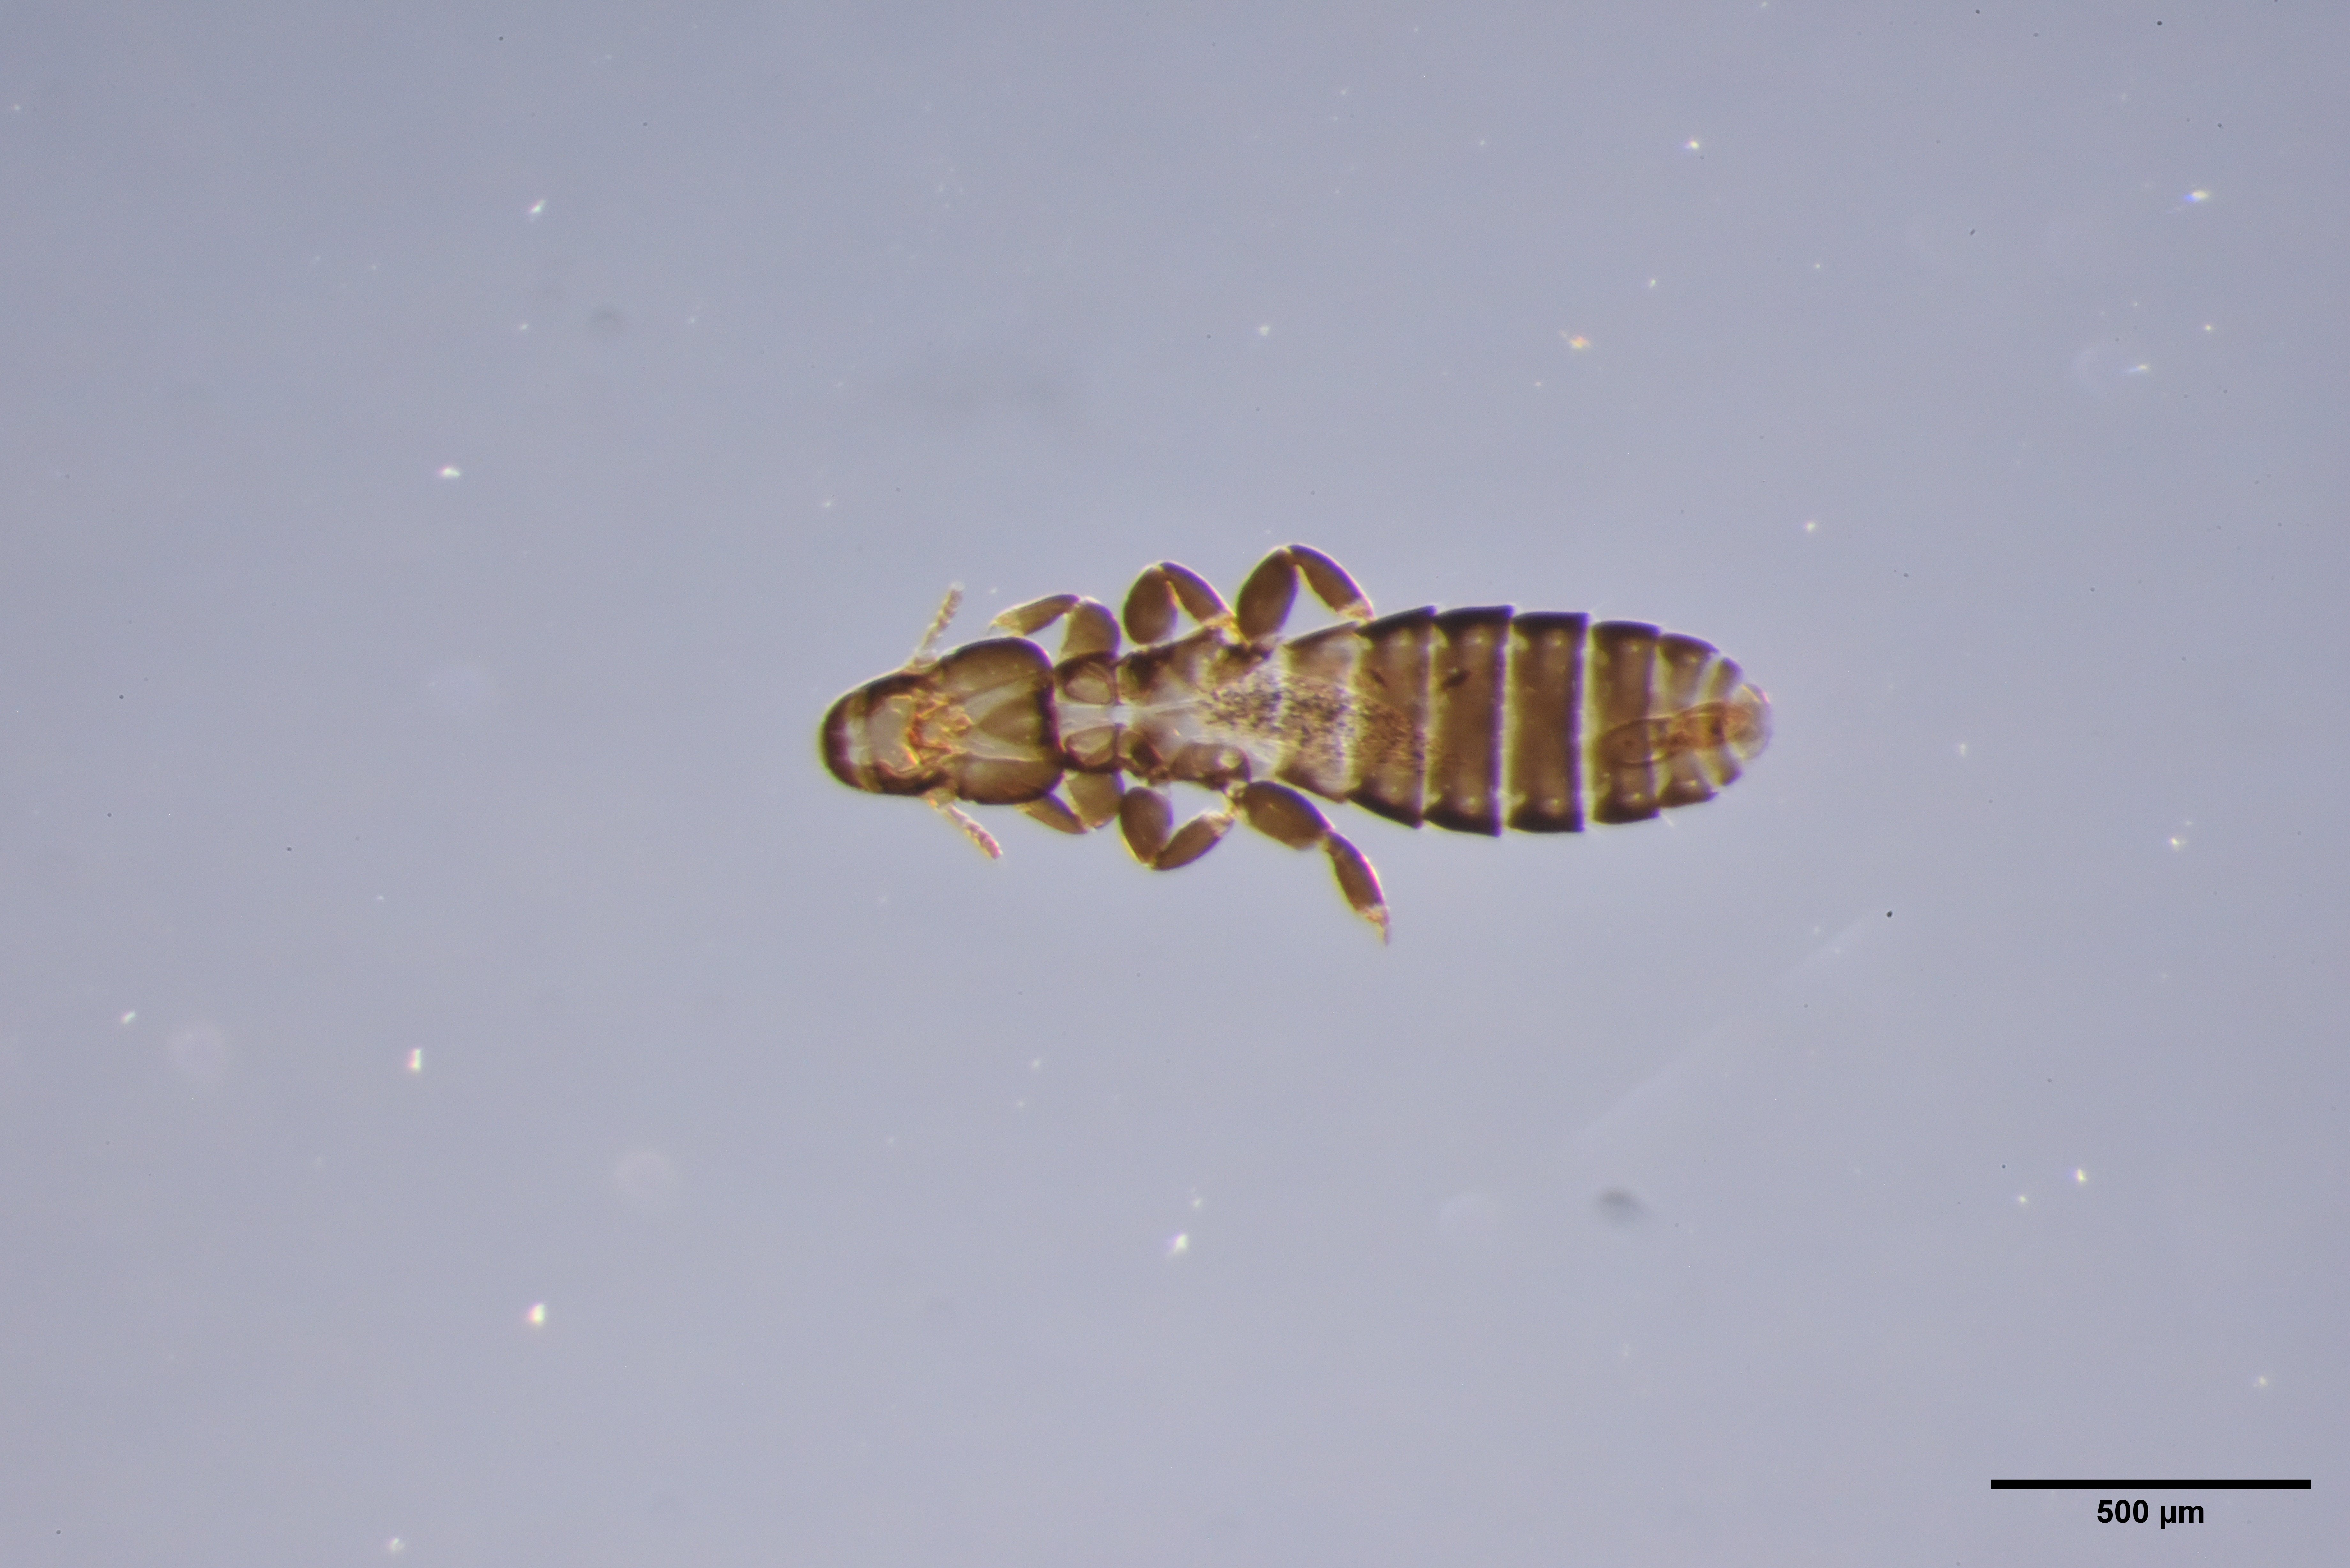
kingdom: Animalia
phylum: Arthropoda
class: Insecta
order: Psocodea
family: Philopteridae
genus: Lunaceps
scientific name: Lunaceps actophilus
